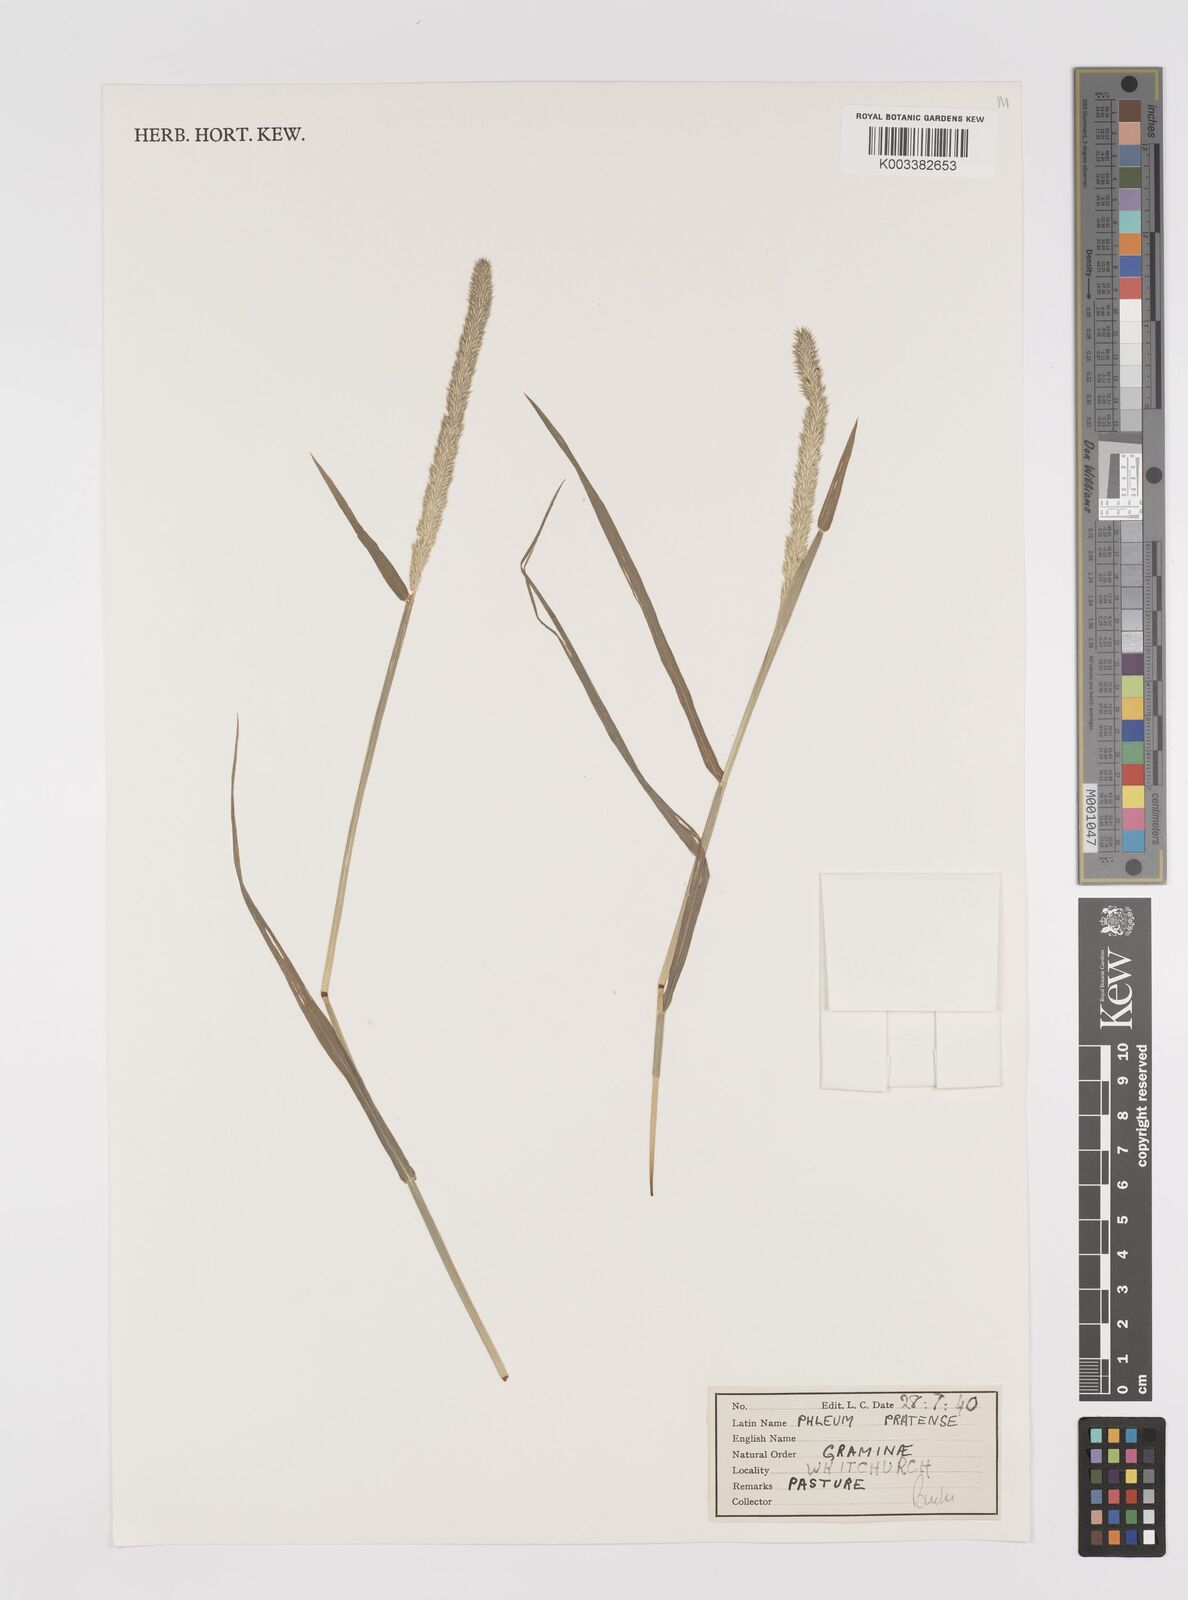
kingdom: Plantae
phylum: Tracheophyta
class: Liliopsida
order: Poales
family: Poaceae
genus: Phleum
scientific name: Phleum pratense
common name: Timothy grass
